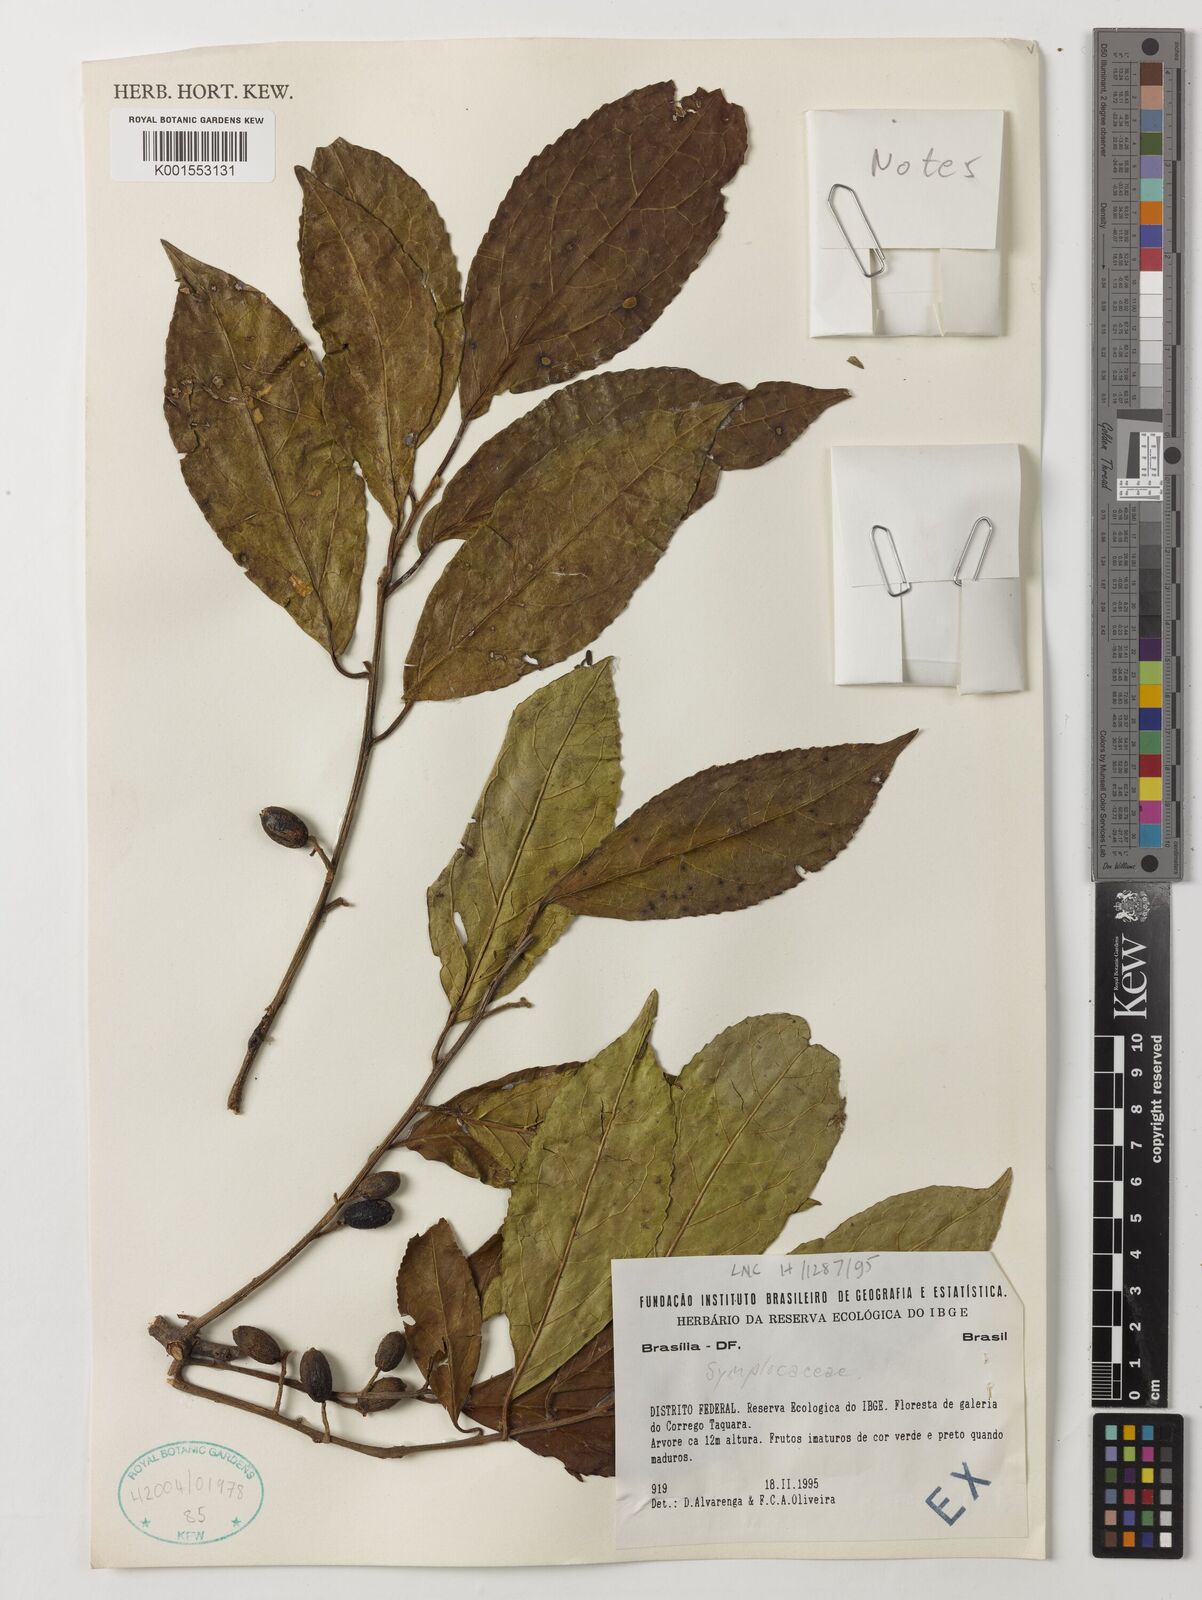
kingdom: Plantae
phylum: Tracheophyta
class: Magnoliopsida
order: Ericales
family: Symplocaceae
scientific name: Symplocaceae
